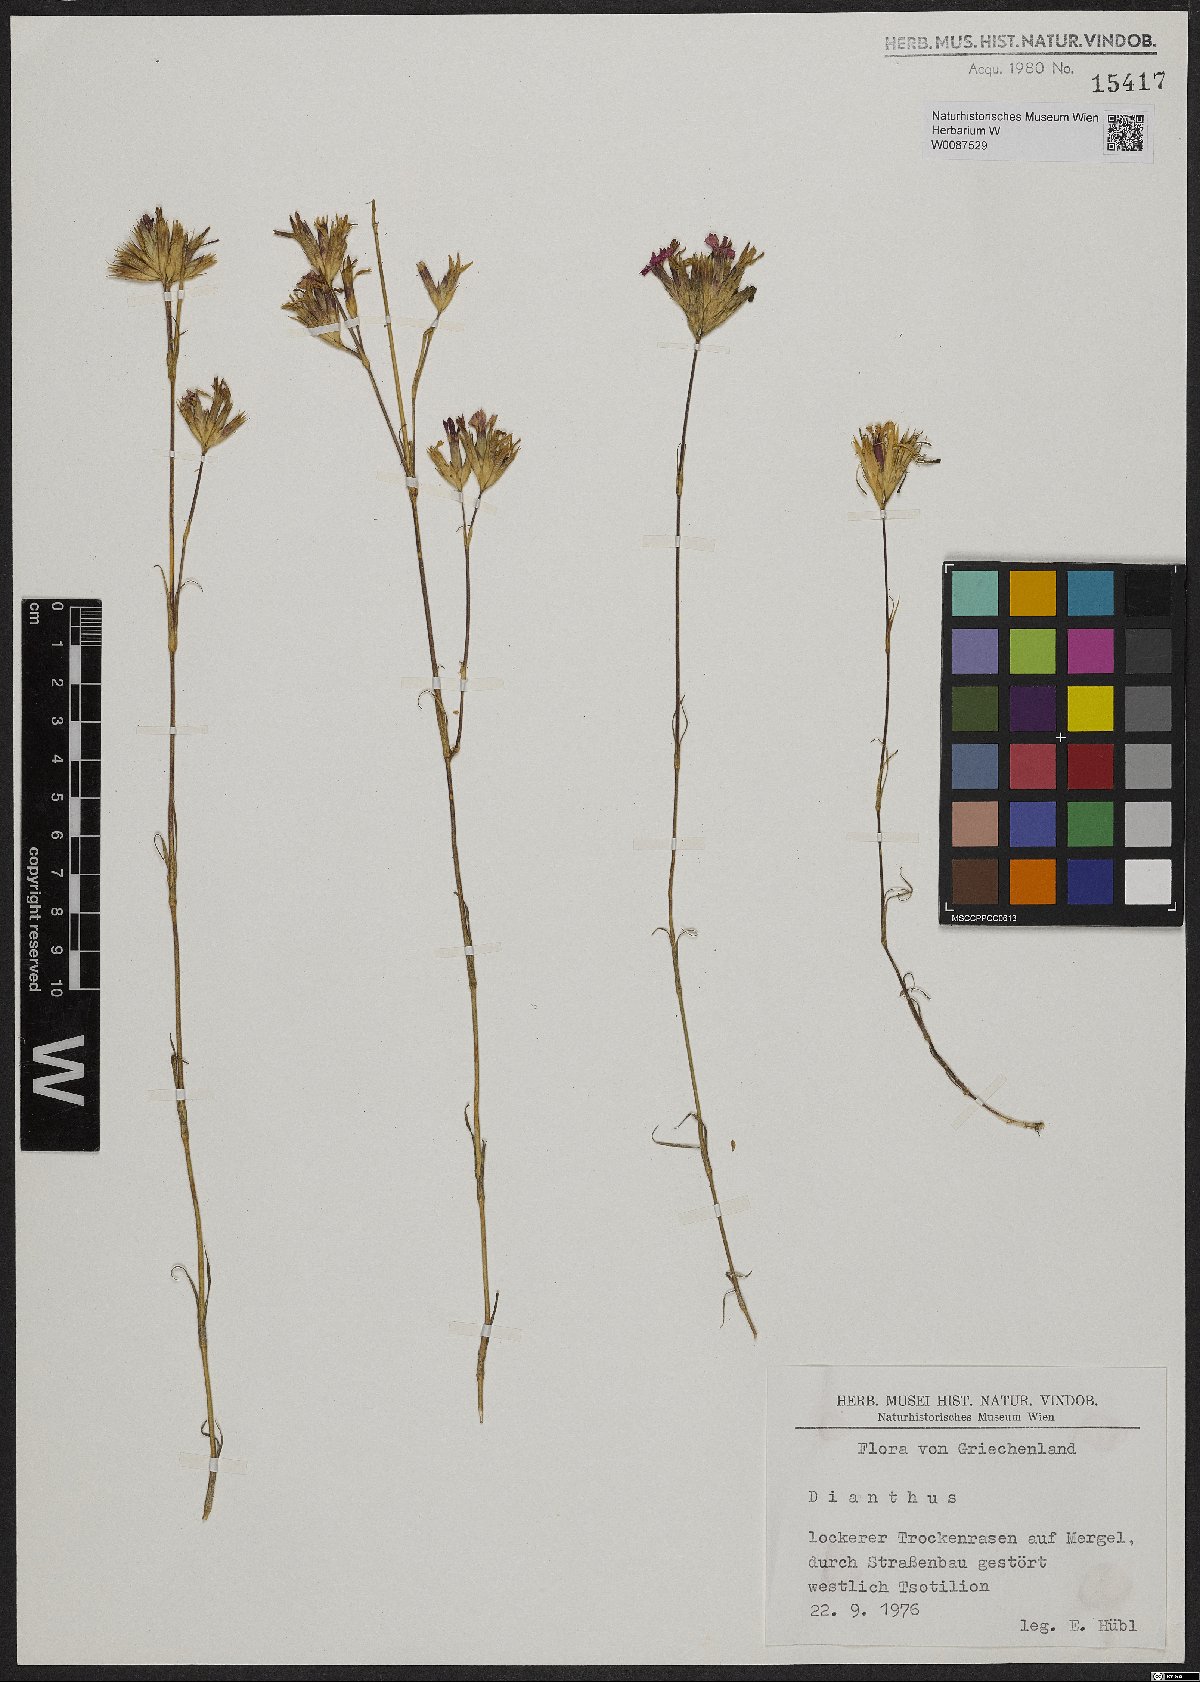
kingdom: Plantae
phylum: Tracheophyta
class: Magnoliopsida
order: Caryophyllales
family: Caryophyllaceae
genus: Dianthus
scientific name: Dianthus
